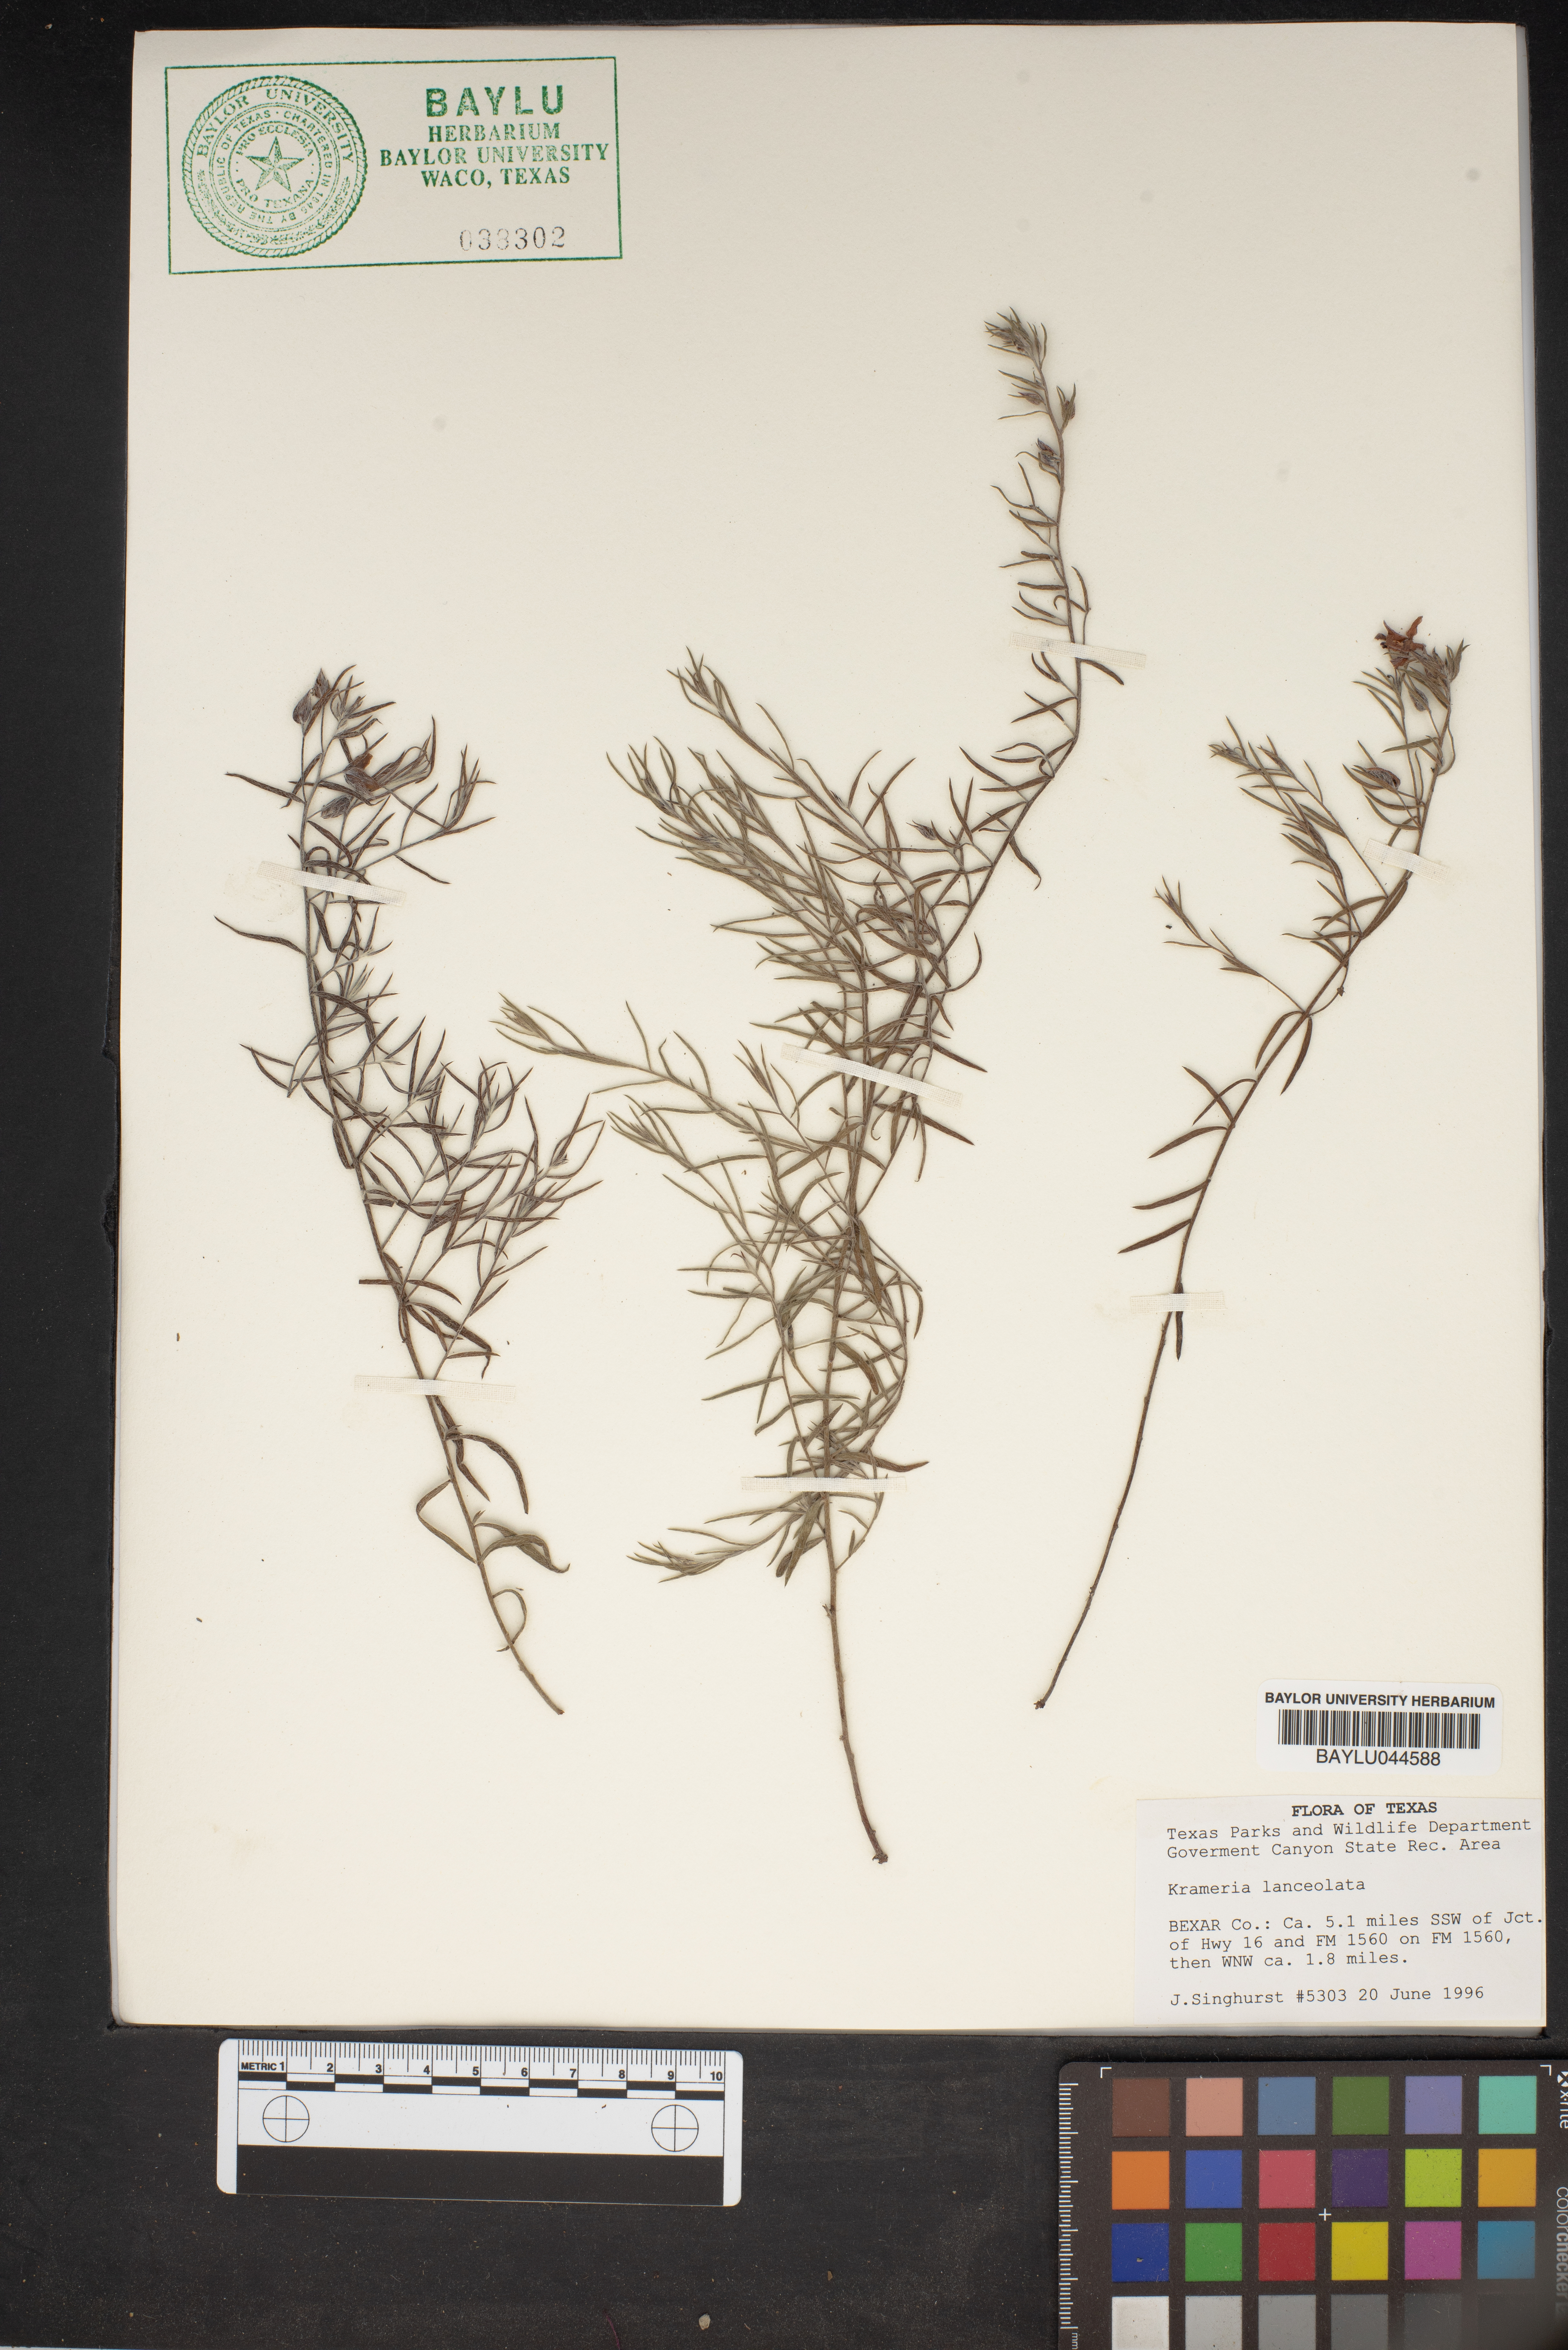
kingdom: Plantae
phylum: Tracheophyta
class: Magnoliopsida
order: Zygophyllales
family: Krameriaceae
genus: Krameria
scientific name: Krameria lanceolata
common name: Ratany
